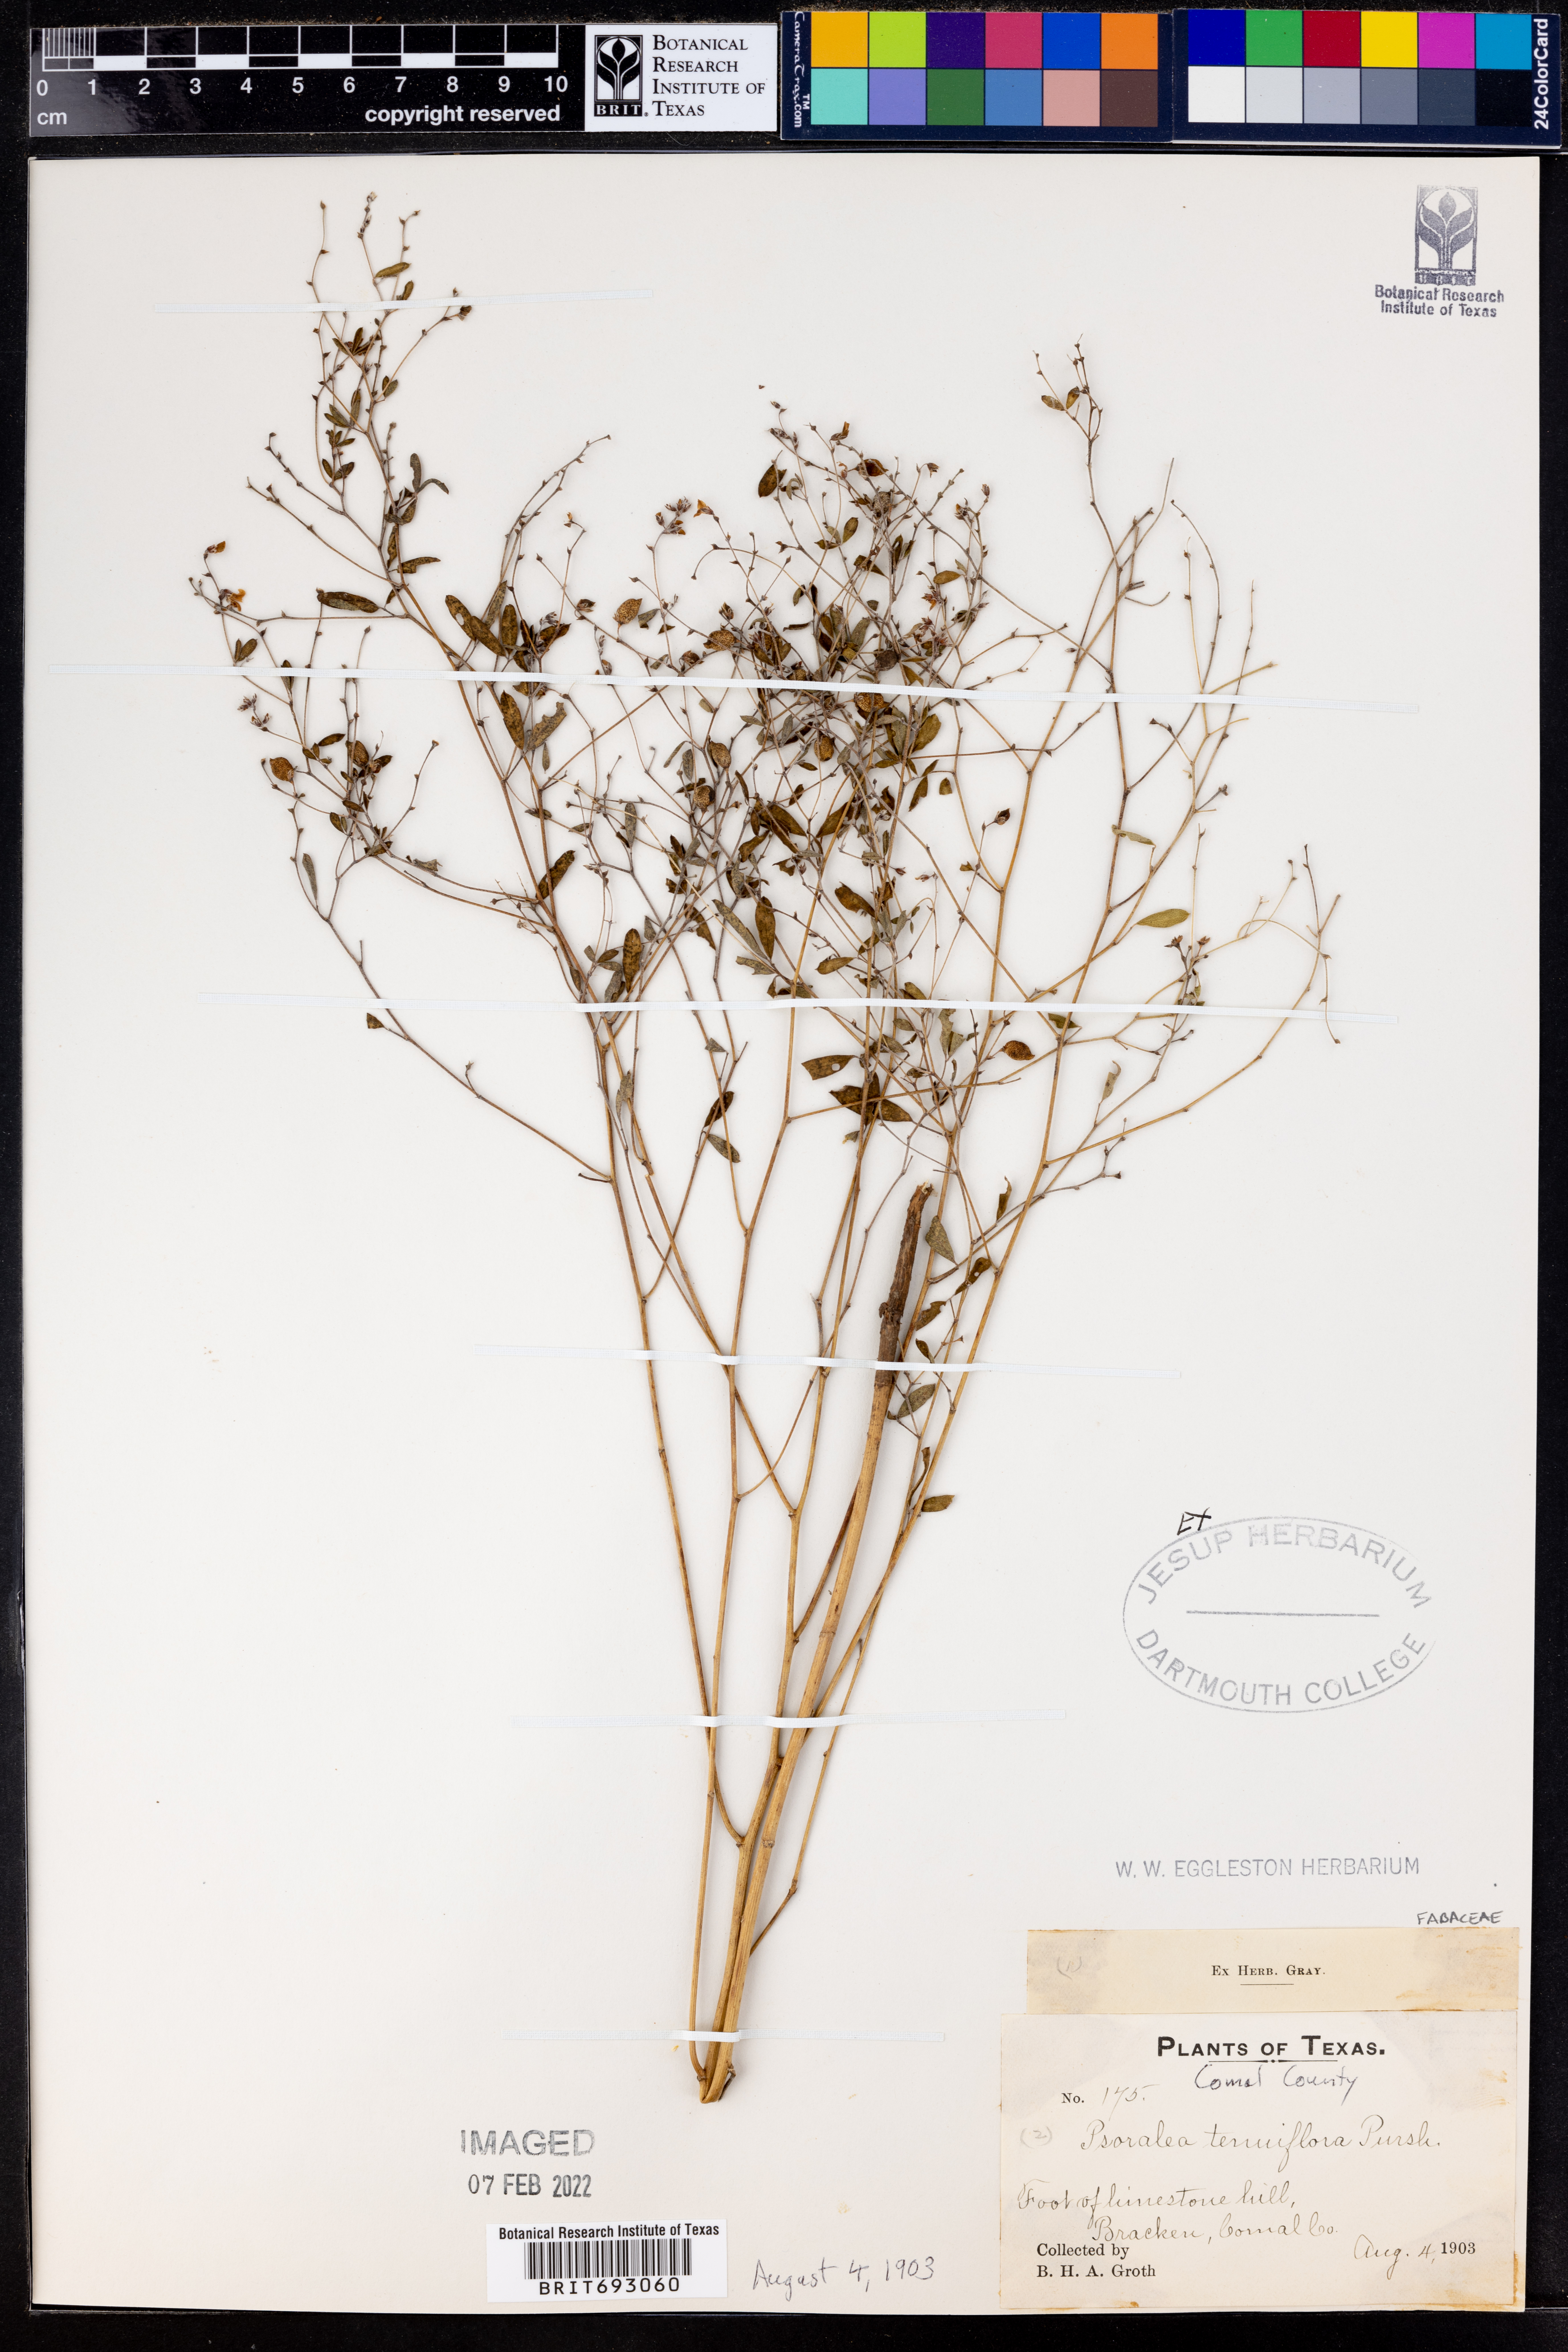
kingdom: Plantae
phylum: Tracheophyta
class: Magnoliopsida
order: Fabales
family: Fabaceae
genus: Pediomelum
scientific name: Pediomelum tenuiflorum
